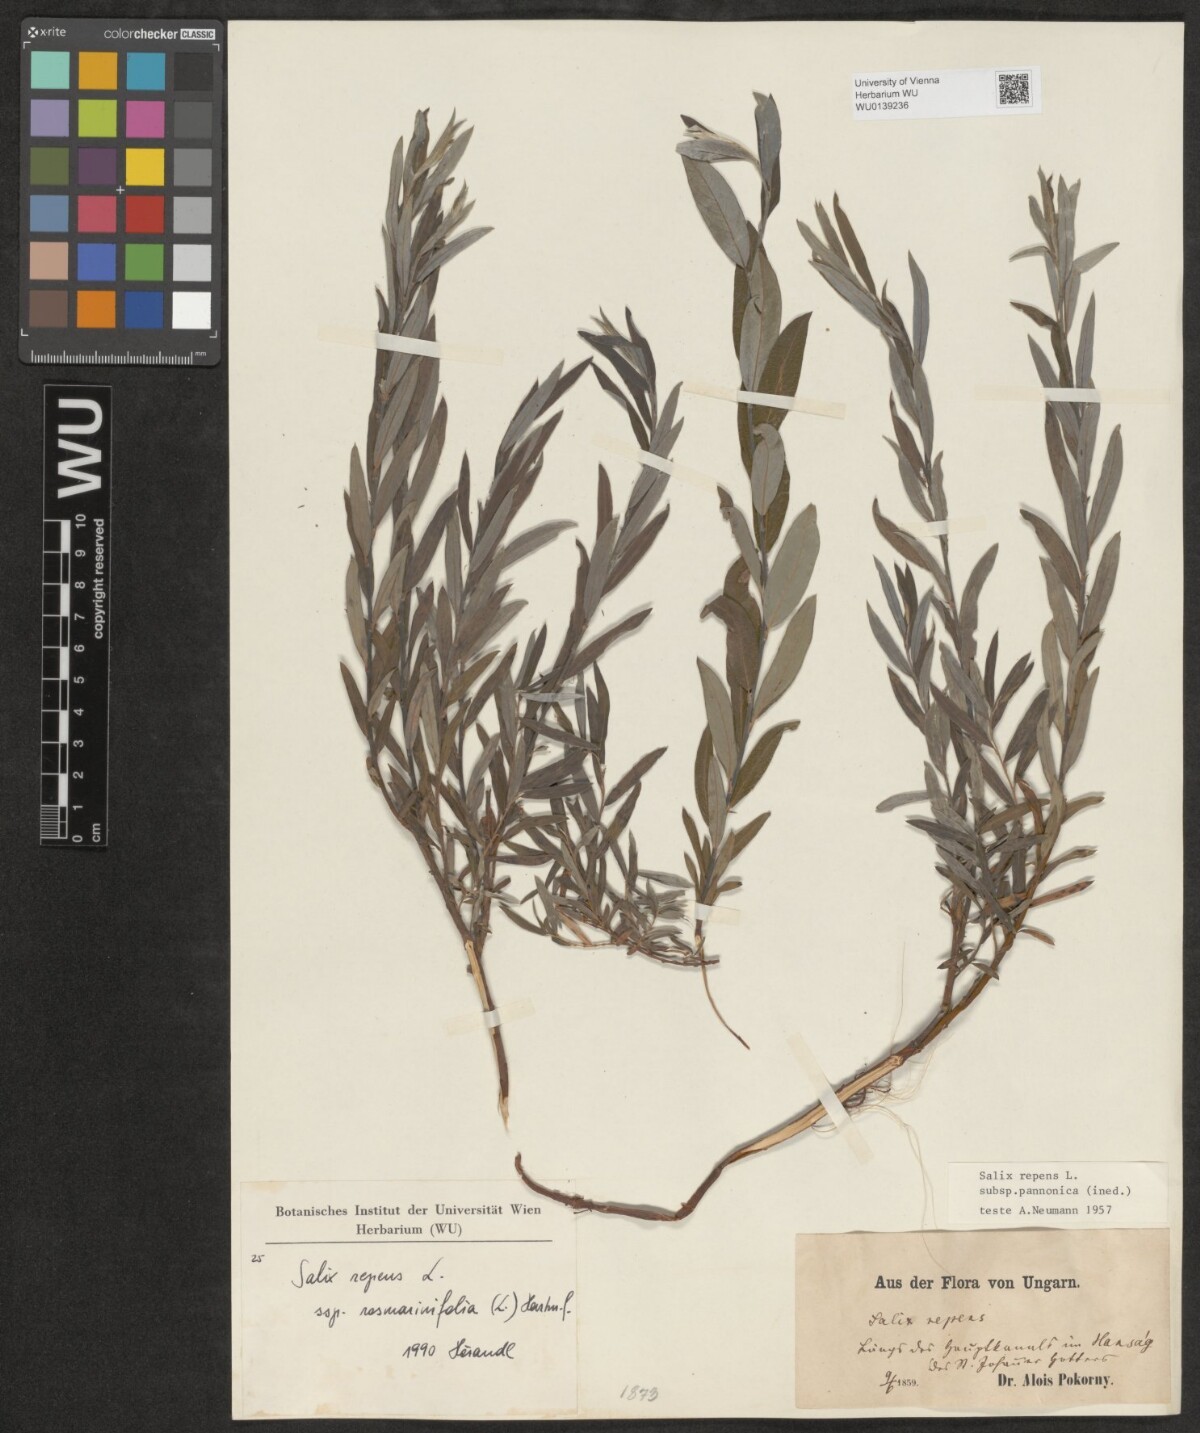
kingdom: Plantae
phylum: Tracheophyta
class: Magnoliopsida
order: Malpighiales
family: Salicaceae
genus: Salix
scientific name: Salix repens
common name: Creeping willow
